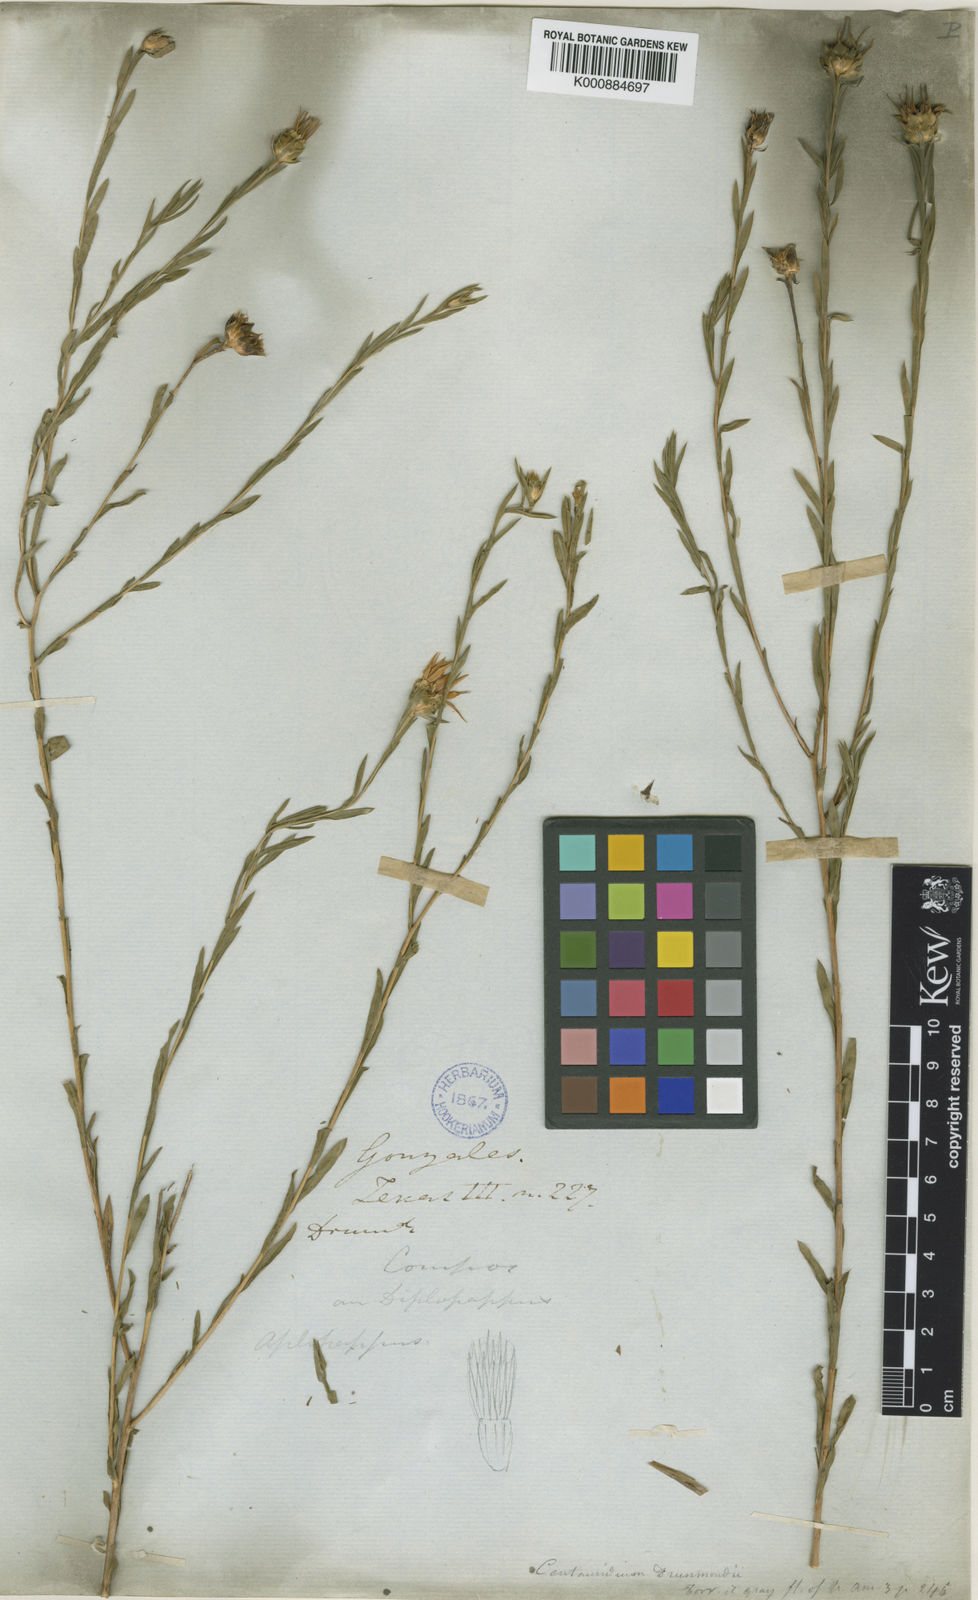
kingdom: Plantae
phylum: Tracheophyta
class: Magnoliopsida
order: Asterales
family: Asteraceae
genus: Xanthisma
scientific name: Xanthisma texanum
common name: Texas sleepy daisy
